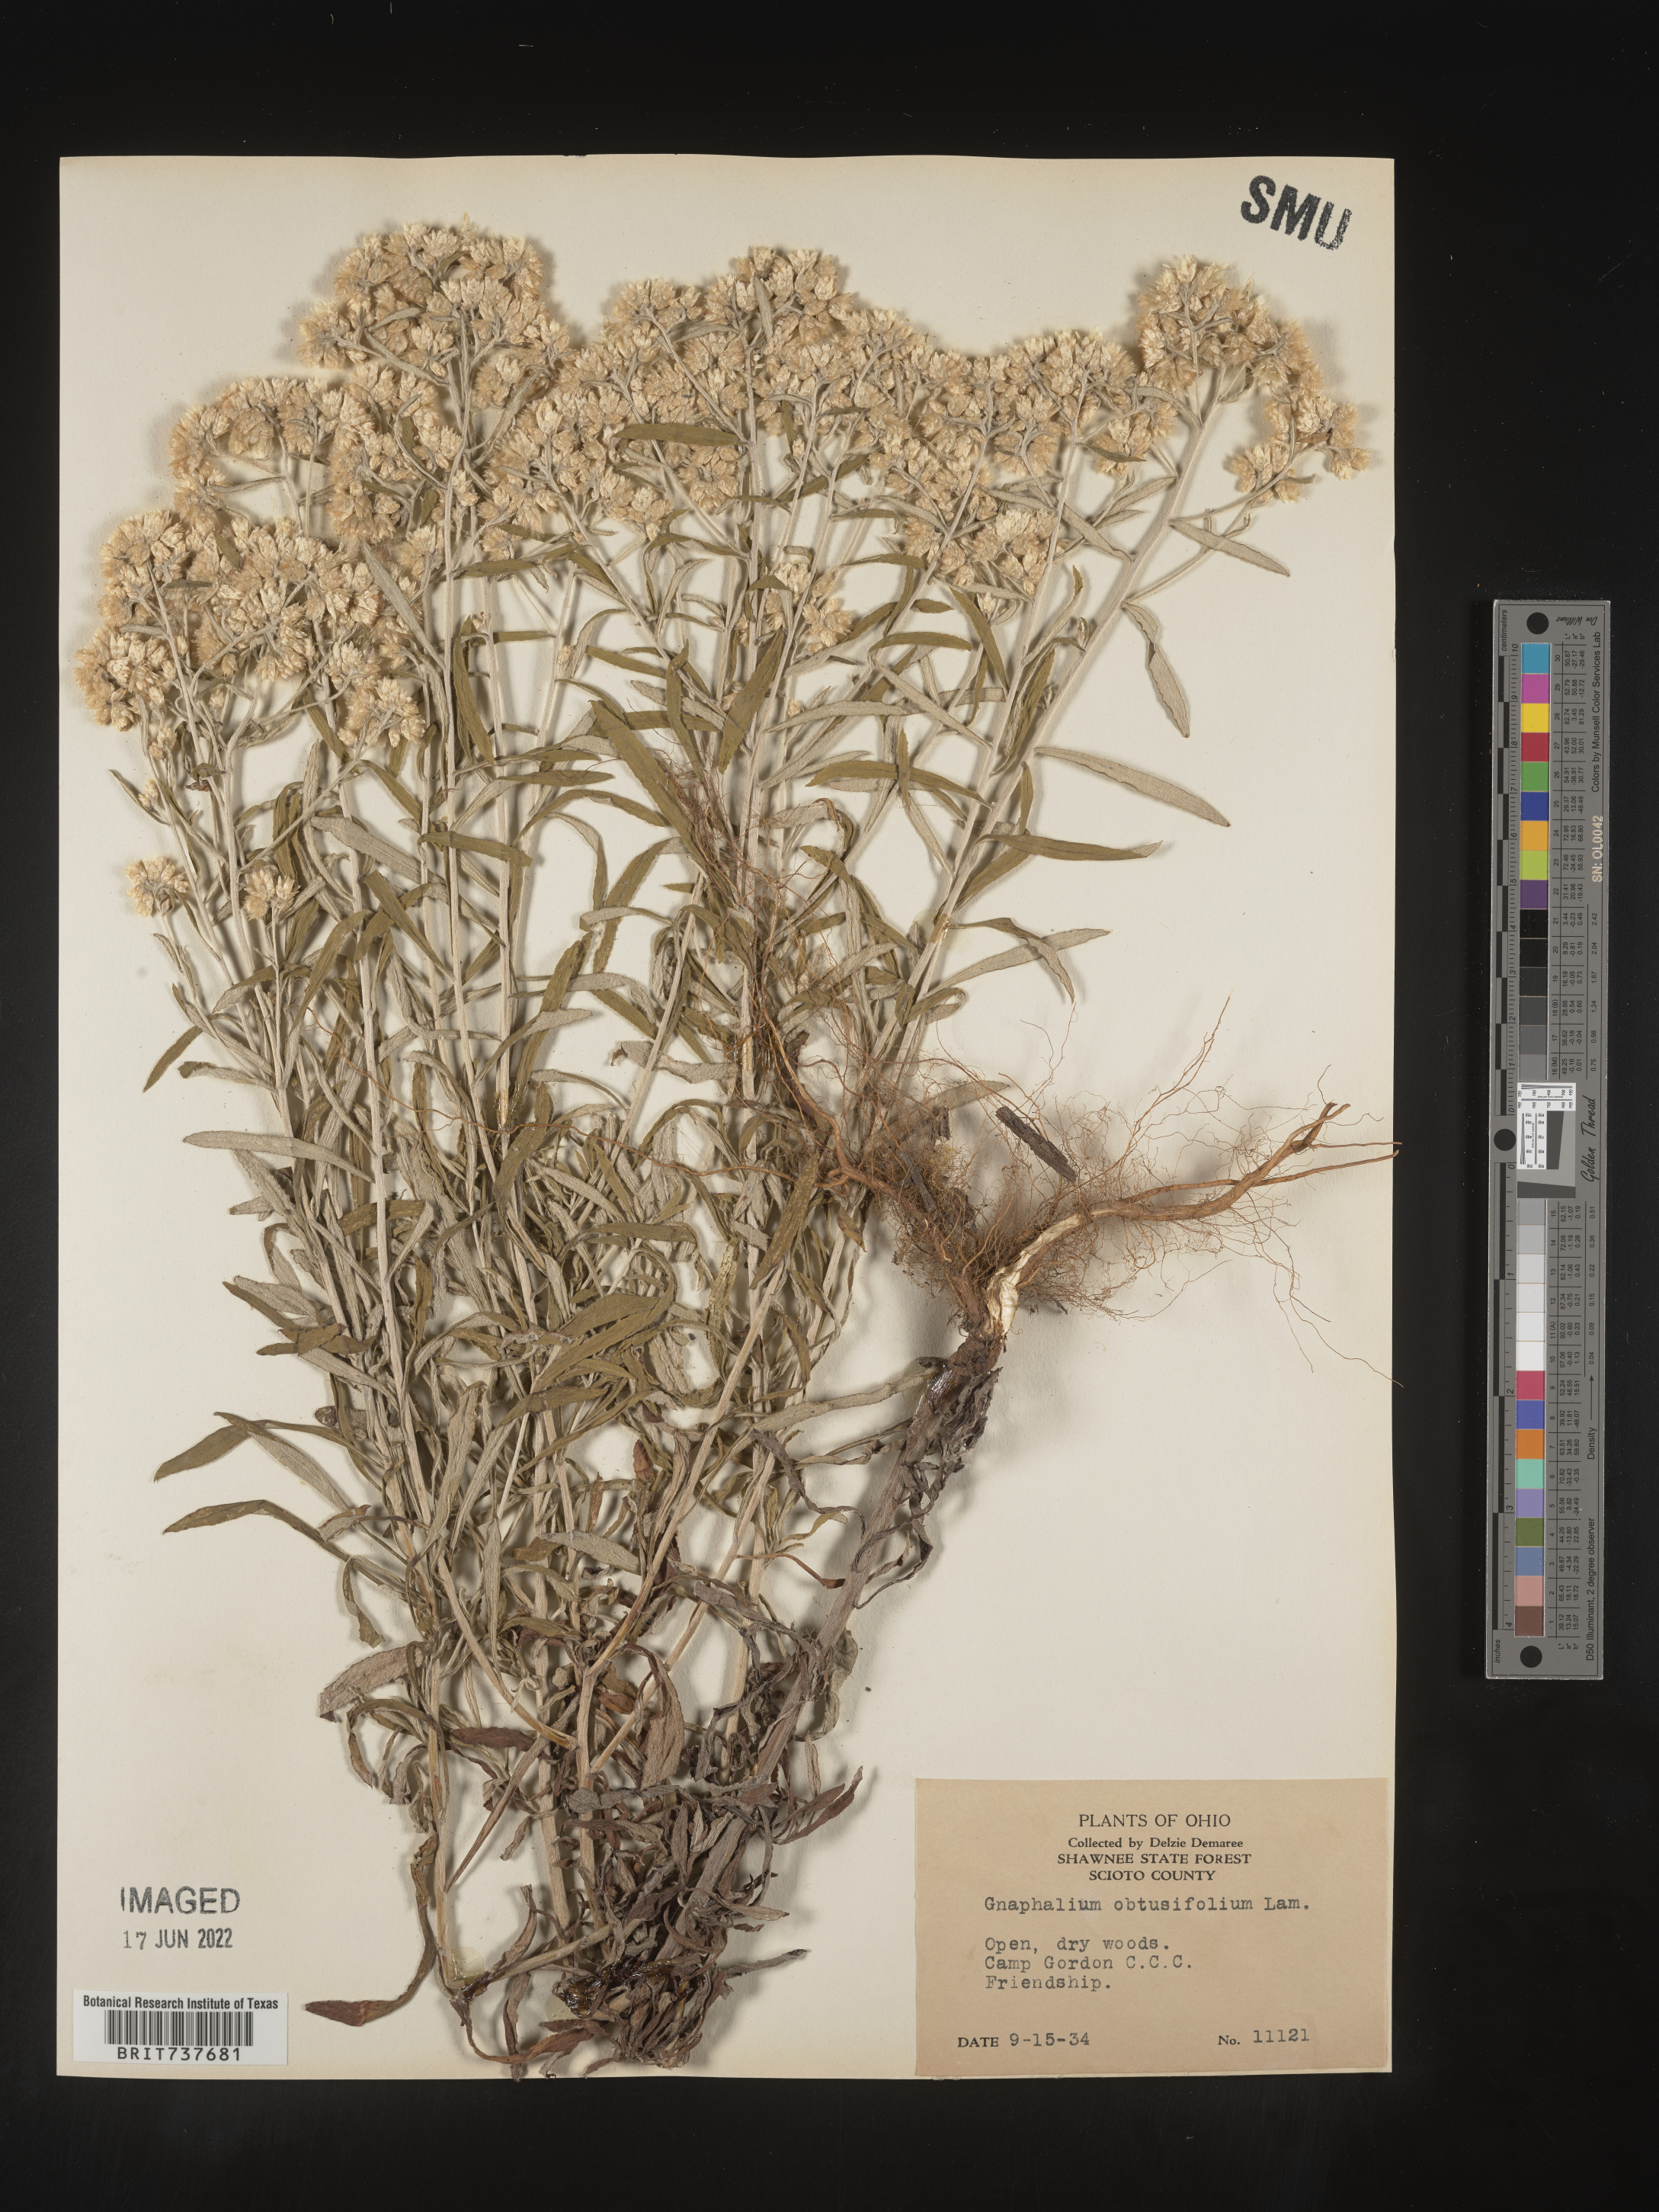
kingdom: Plantae
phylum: Tracheophyta
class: Magnoliopsida
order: Asterales
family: Asteraceae
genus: Pseudognaphalium
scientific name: Pseudognaphalium obtusifolium
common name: Eastern rabbit-tobacco
